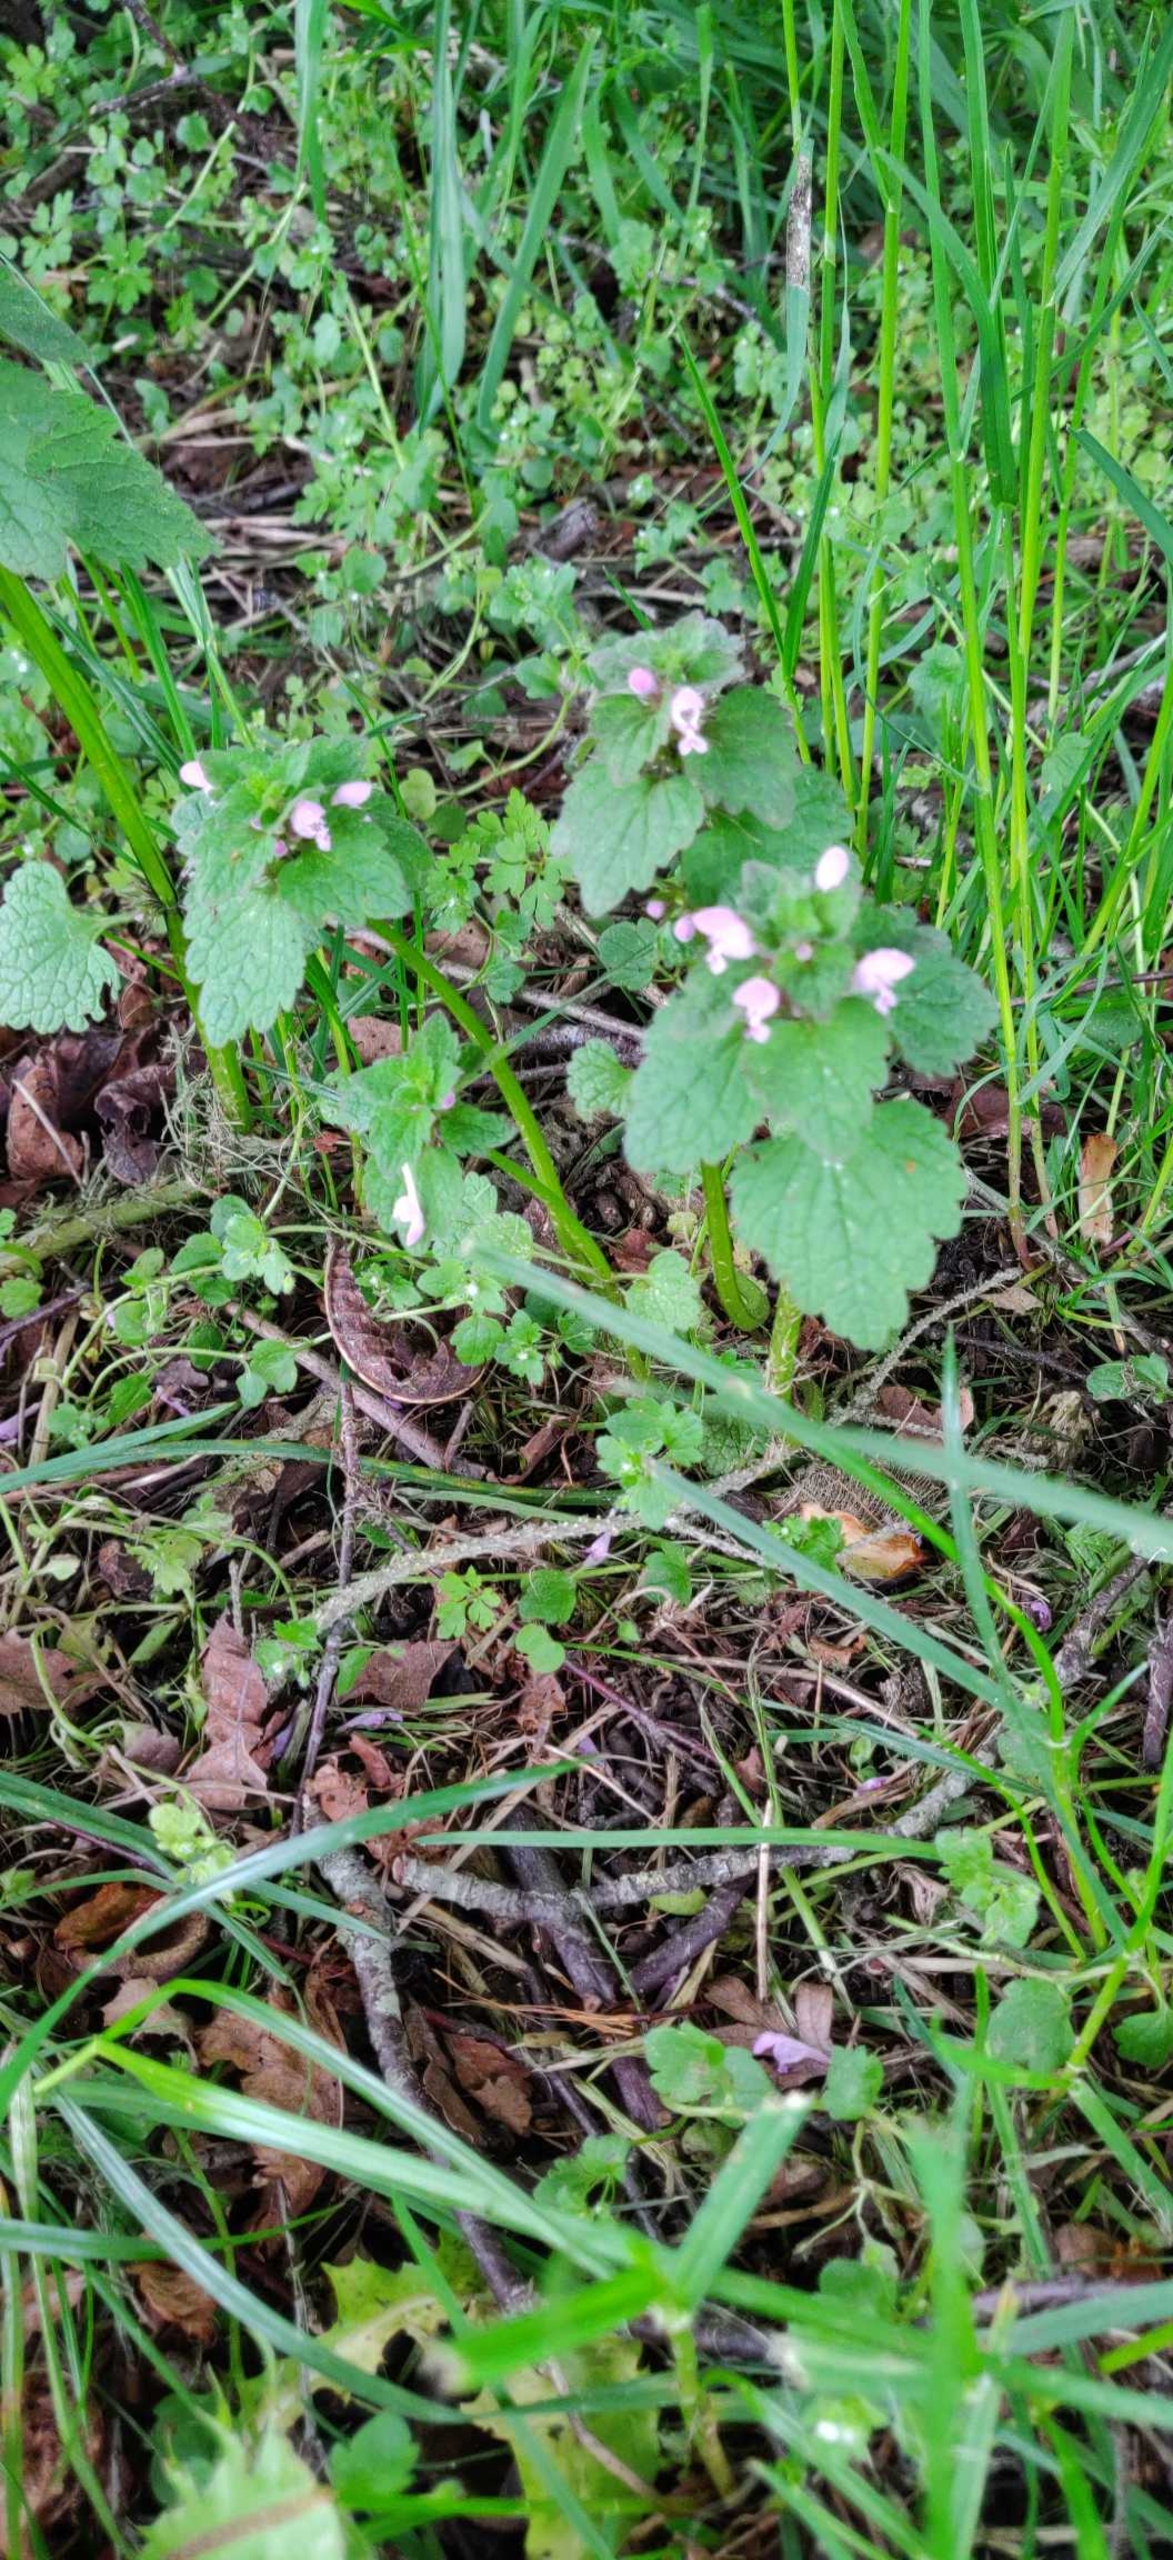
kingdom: Plantae
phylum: Tracheophyta
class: Magnoliopsida
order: Lamiales
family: Lamiaceae
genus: Lamium
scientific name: Lamium purpureum
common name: Rød tvetand
